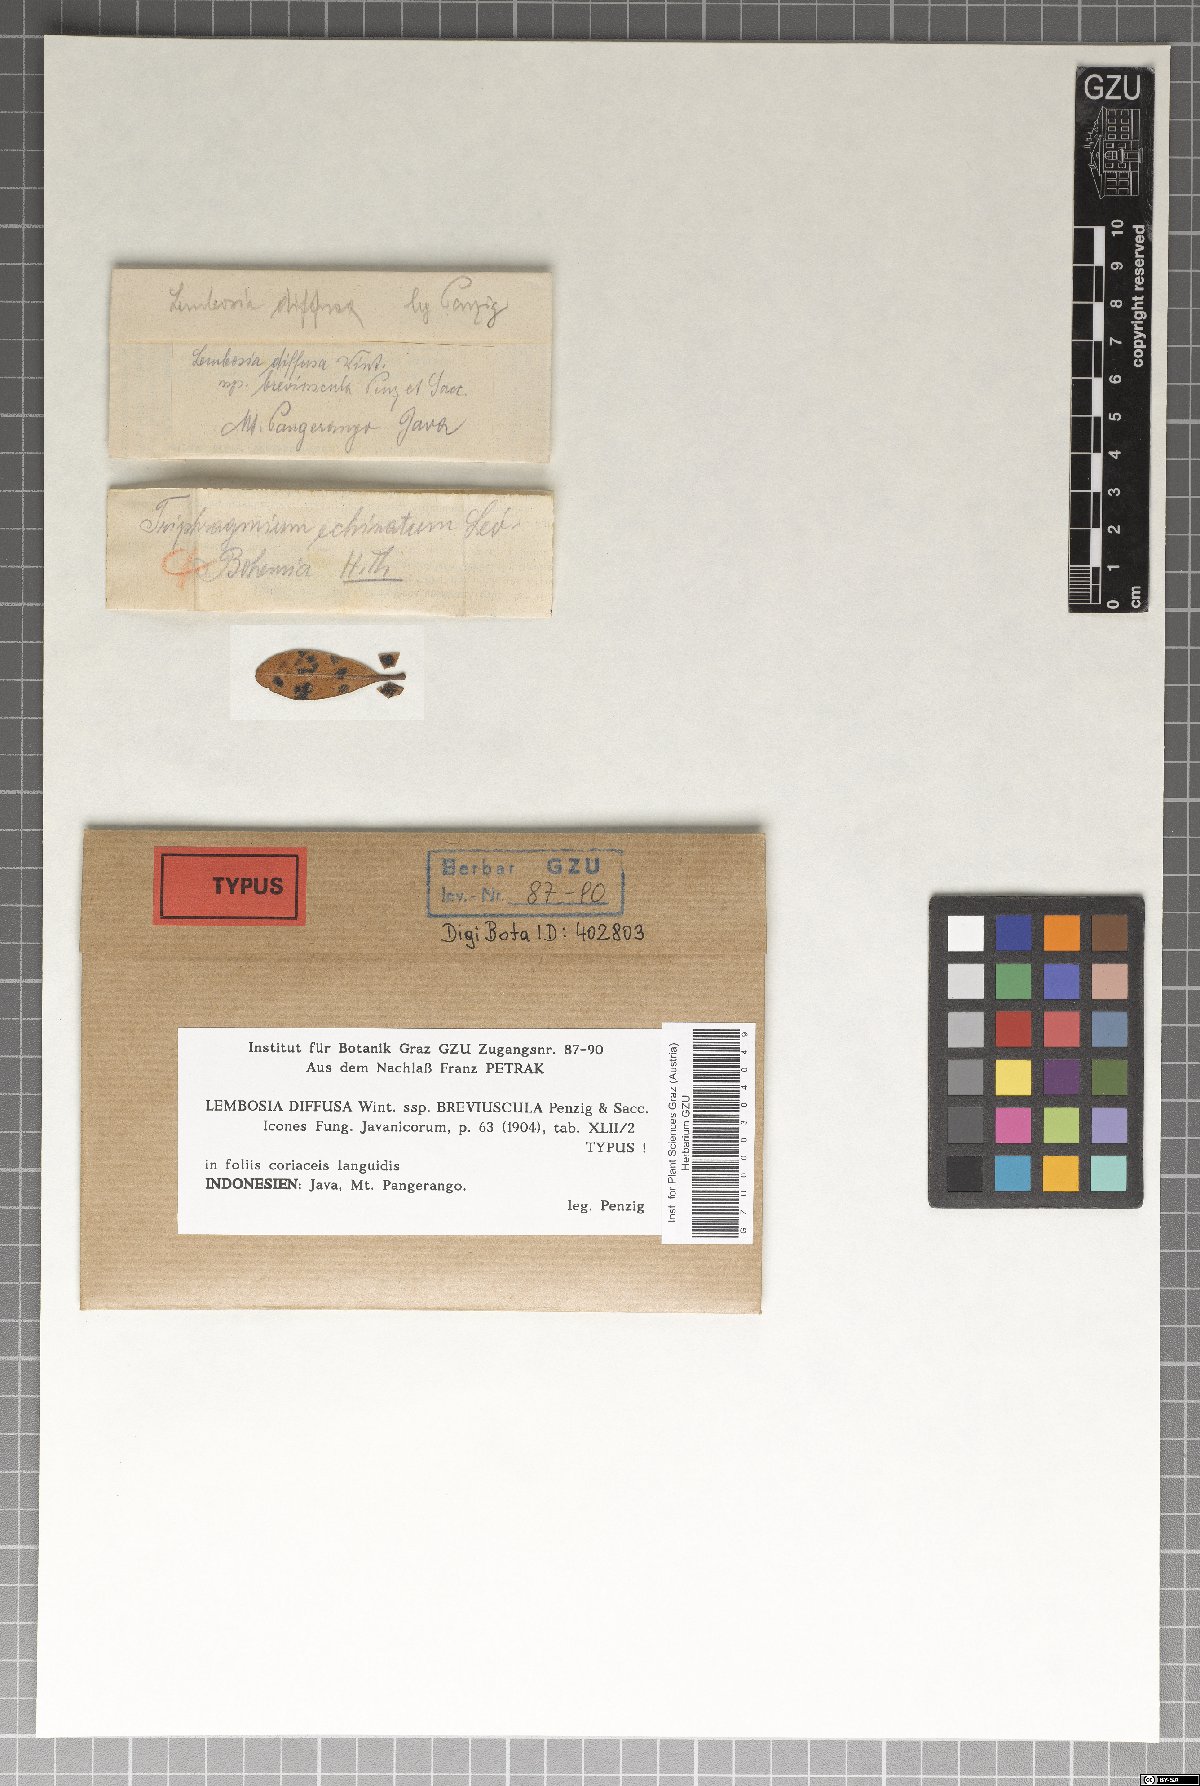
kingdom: Fungi
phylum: Ascomycota
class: Dothideomycetes
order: Asterinales
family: Asterinaceae
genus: Lembosia
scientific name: Lembosia
